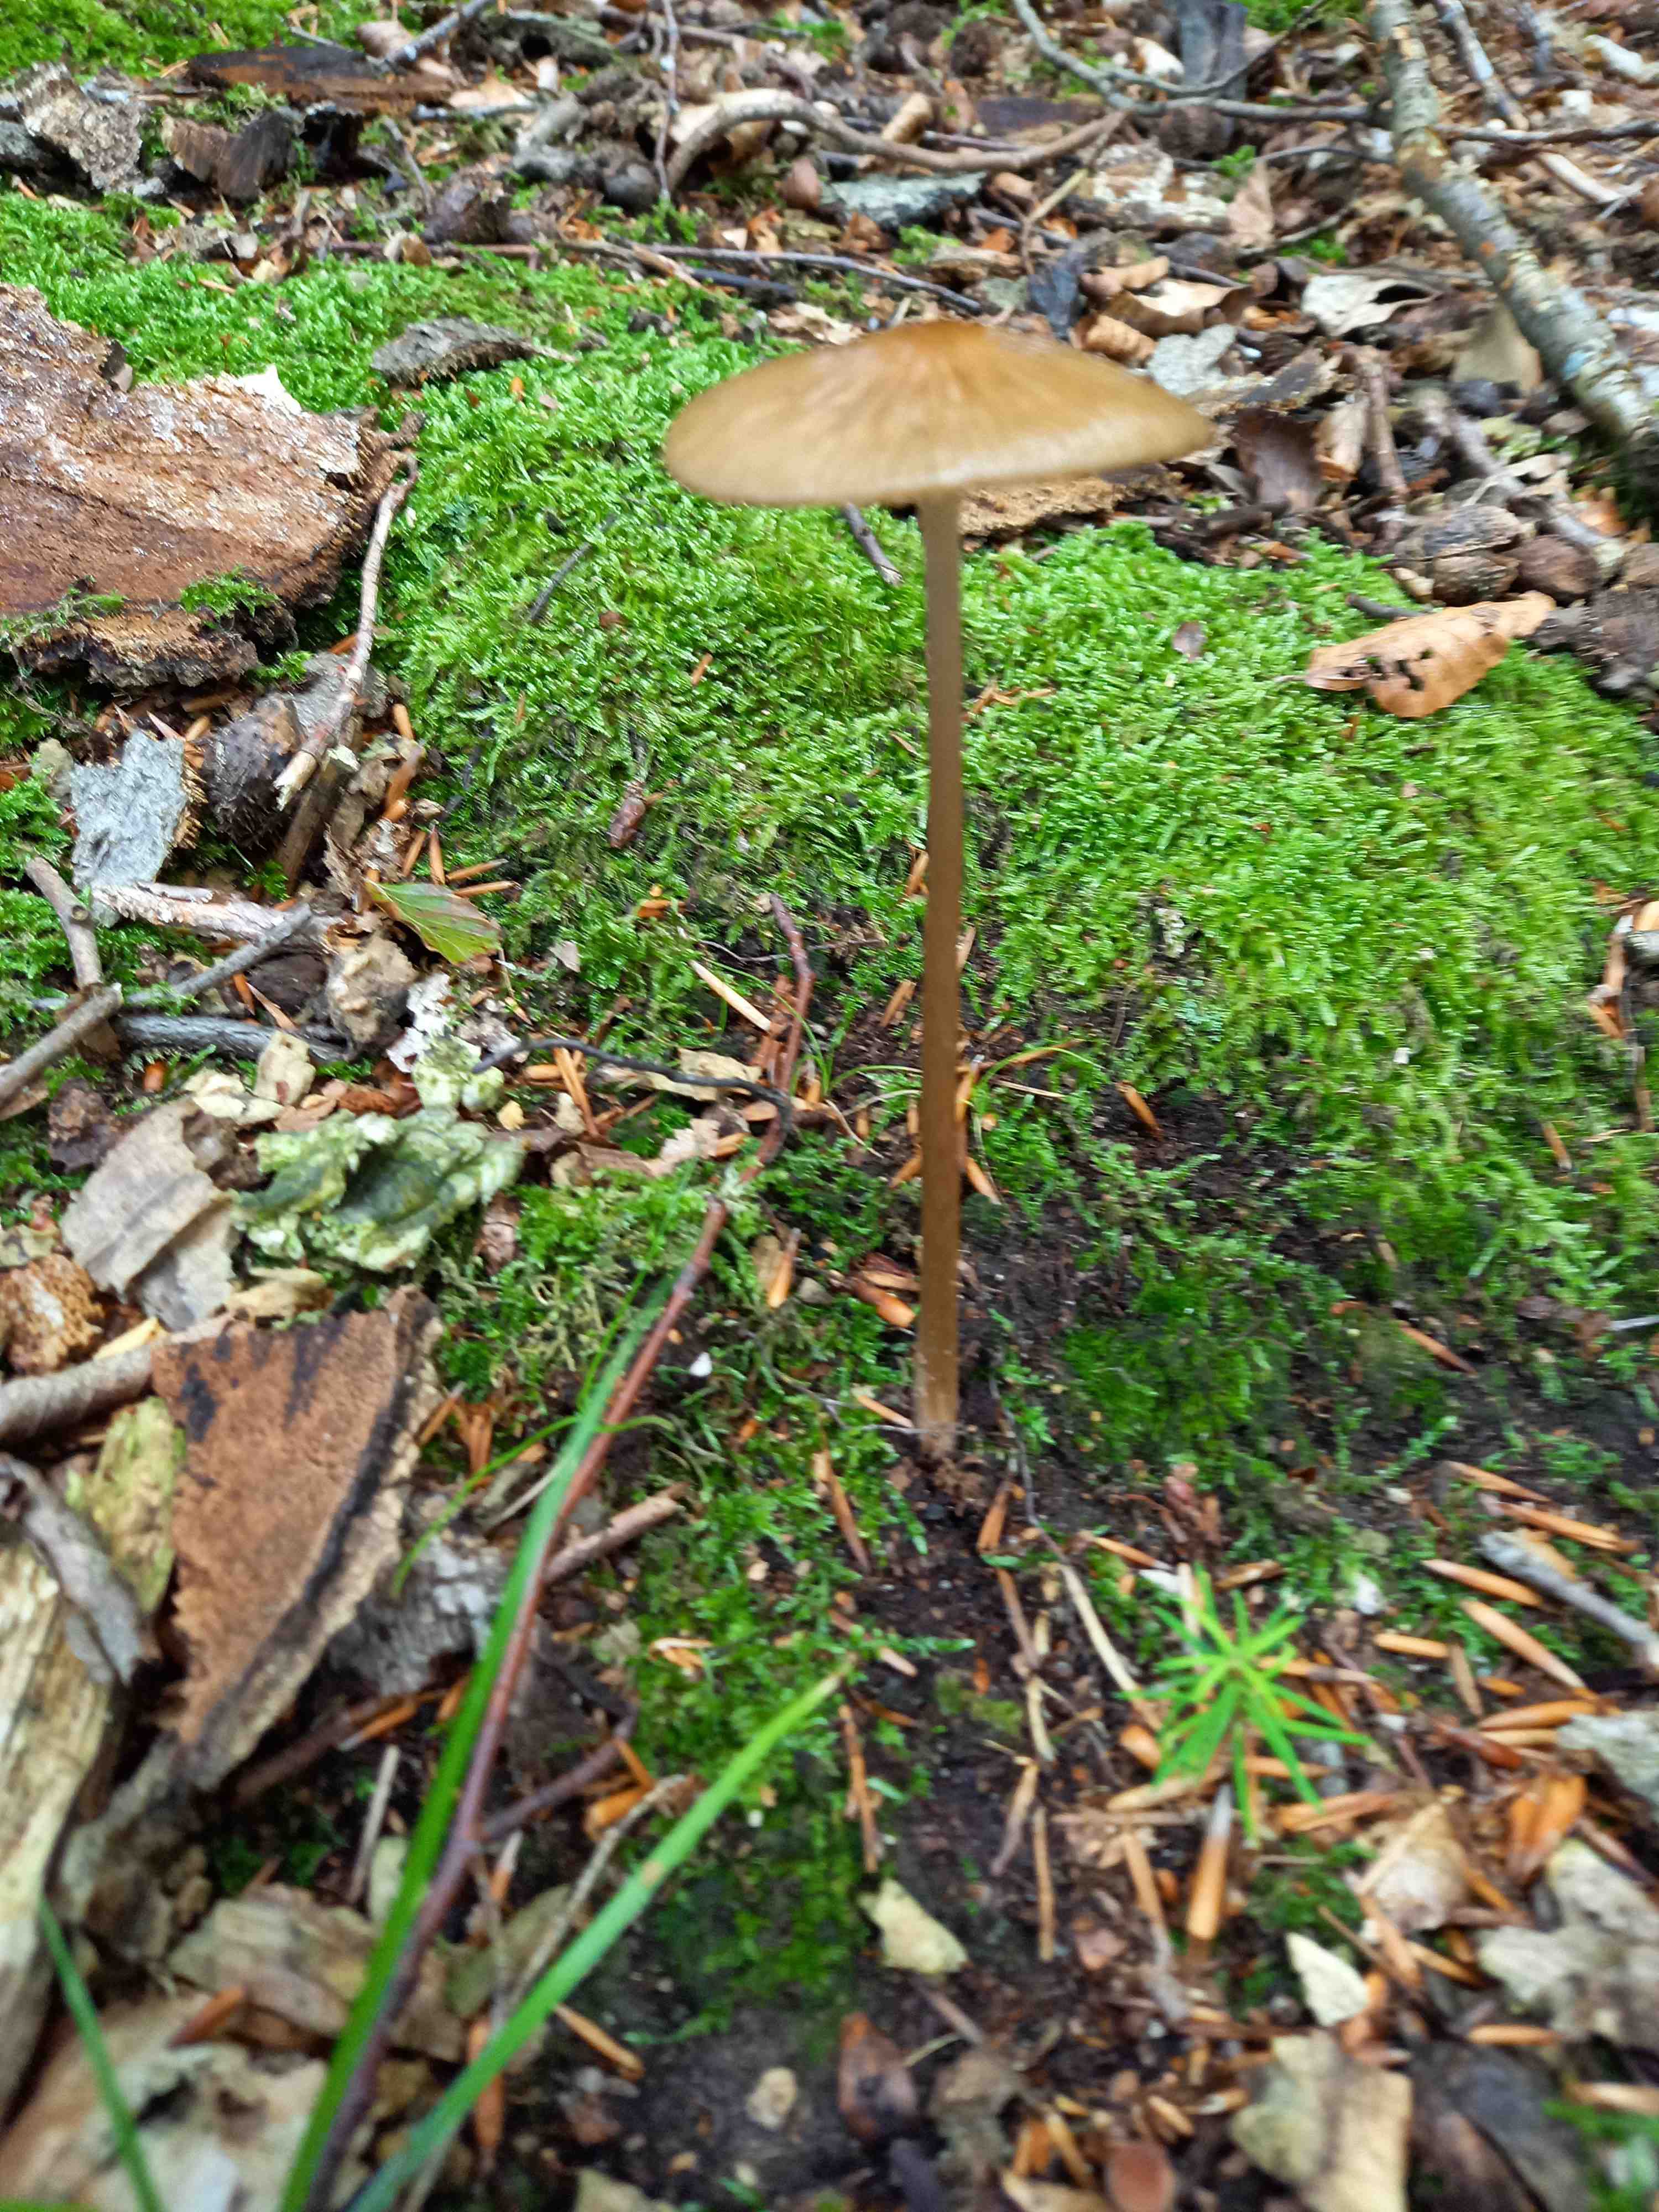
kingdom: Fungi
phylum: Basidiomycota
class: Agaricomycetes
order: Agaricales
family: Physalacriaceae
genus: Hymenopellis
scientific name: Hymenopellis radicata
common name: almindelig pælerodshat
